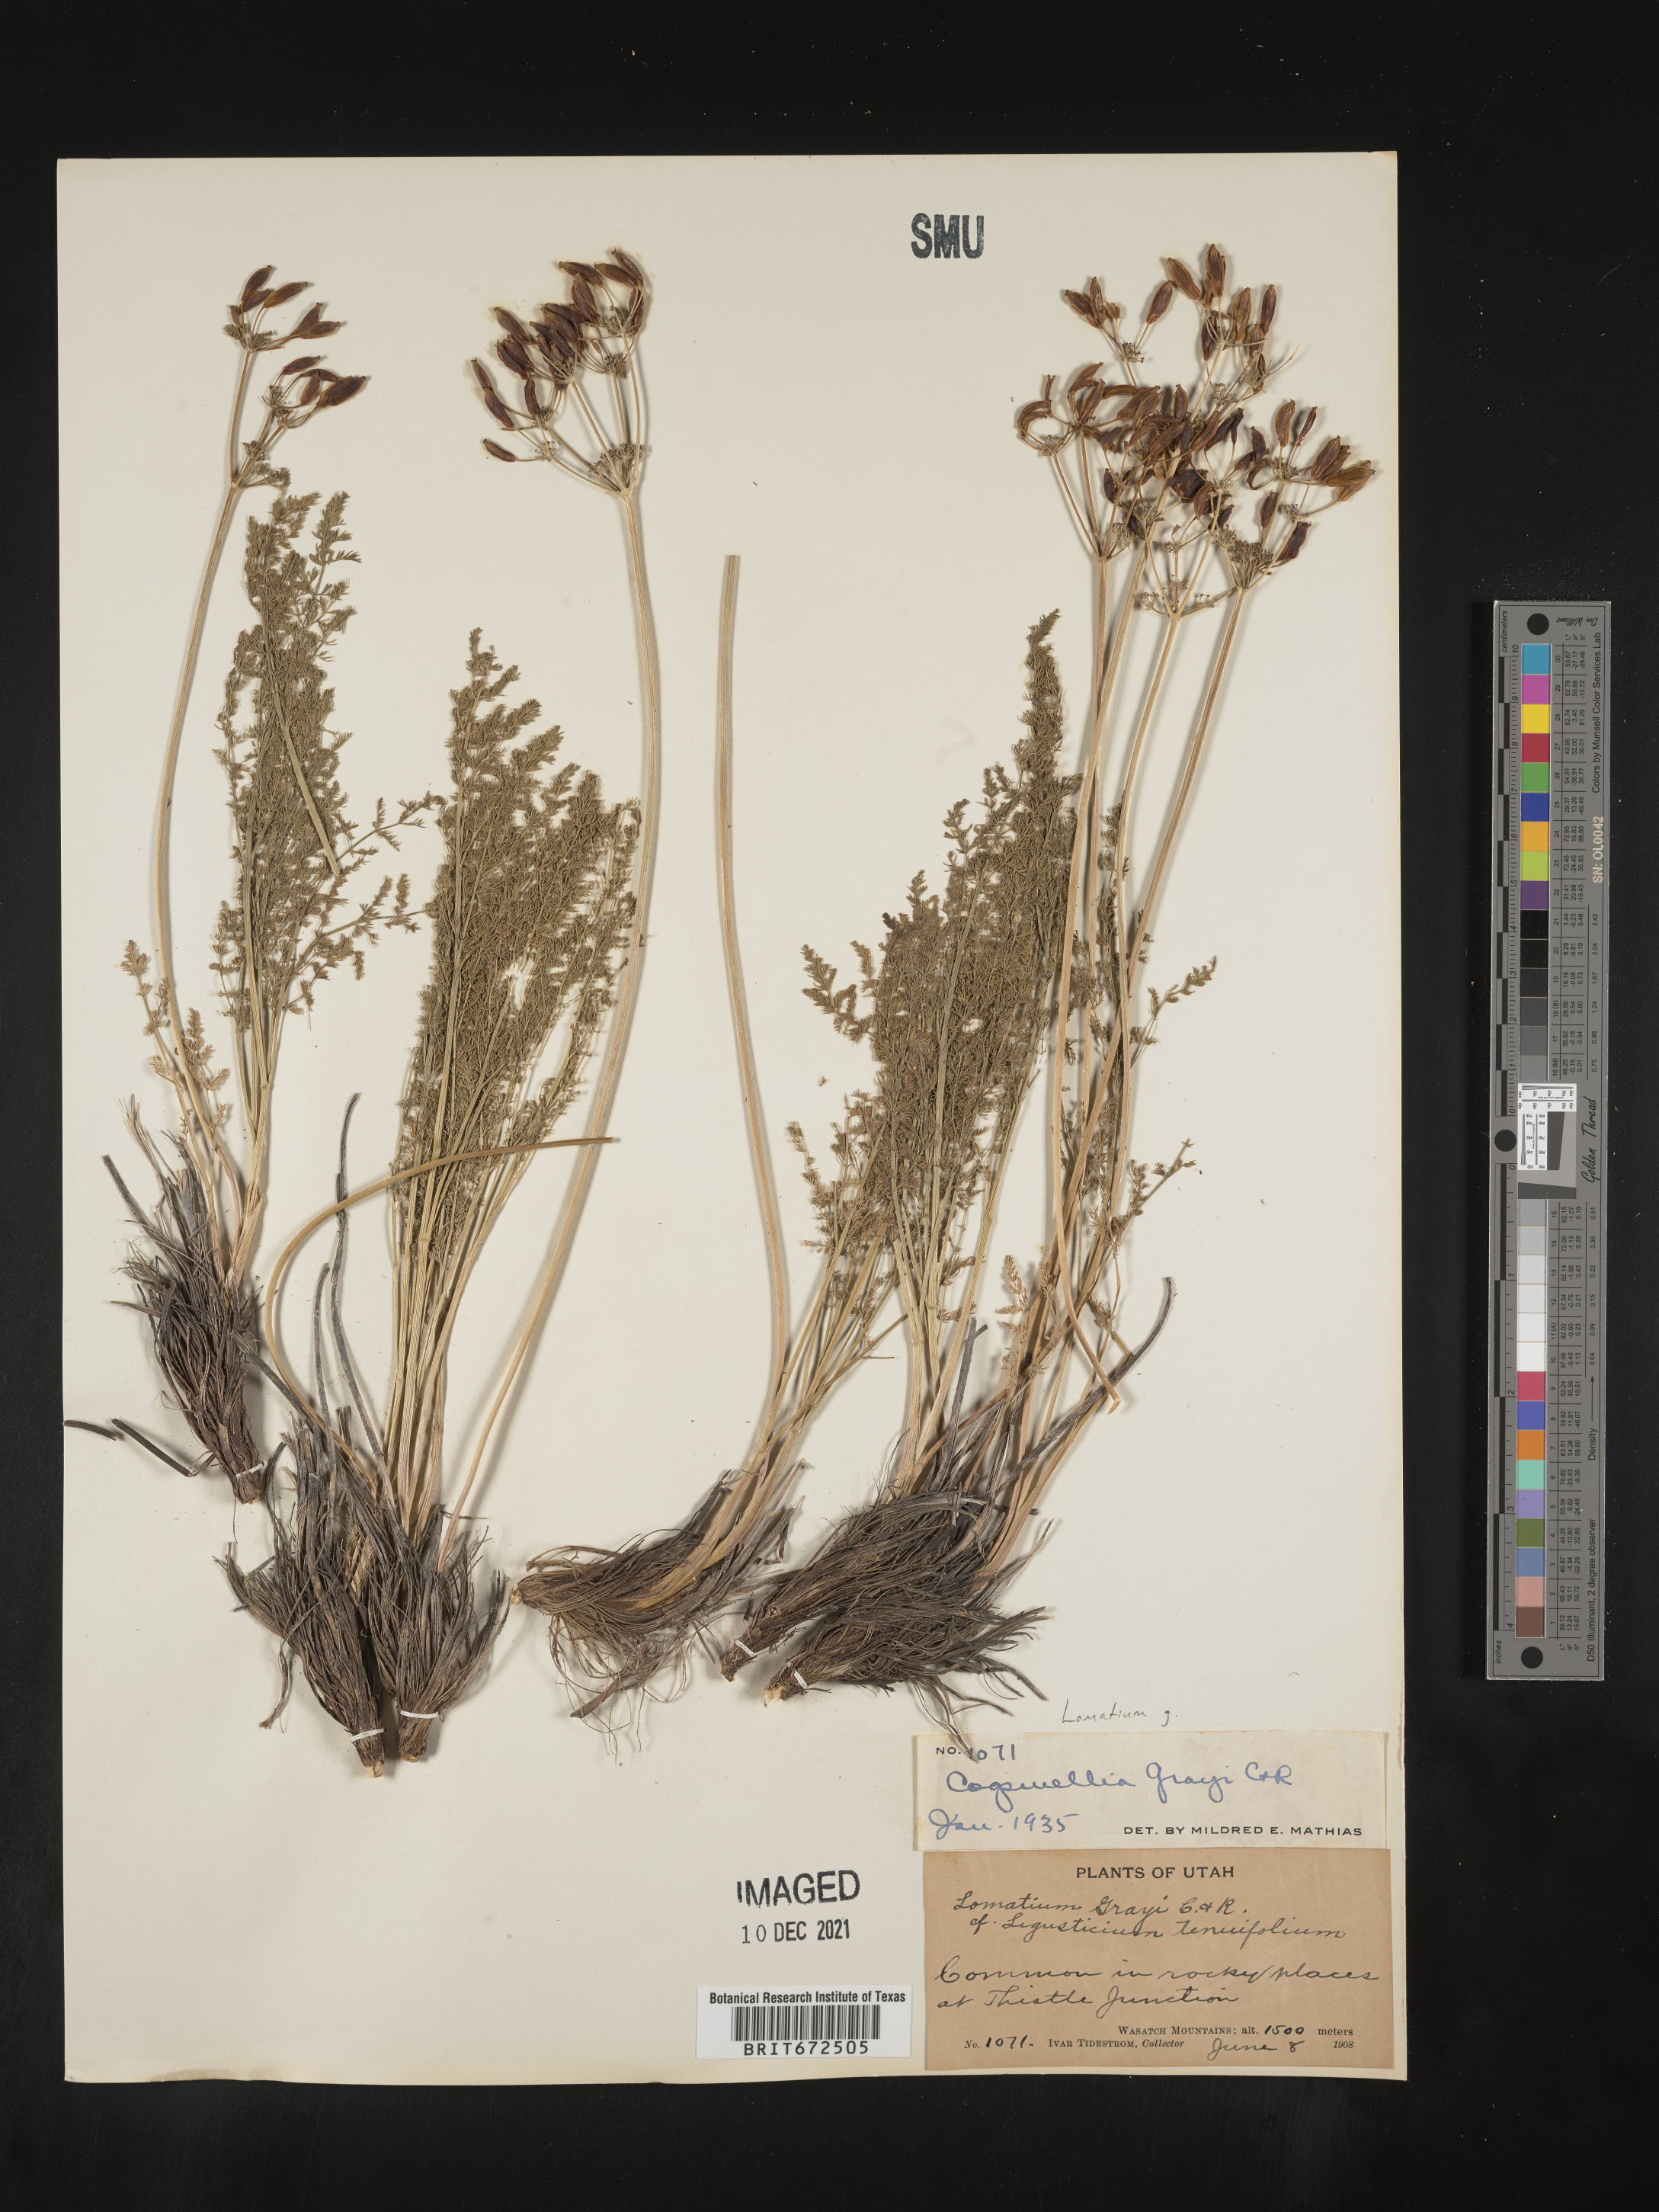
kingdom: Plantae
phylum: Tracheophyta
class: Magnoliopsida
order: Apiales
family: Apiaceae
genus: Lomatium
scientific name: Lomatium grayi
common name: Milfoil lomatium
